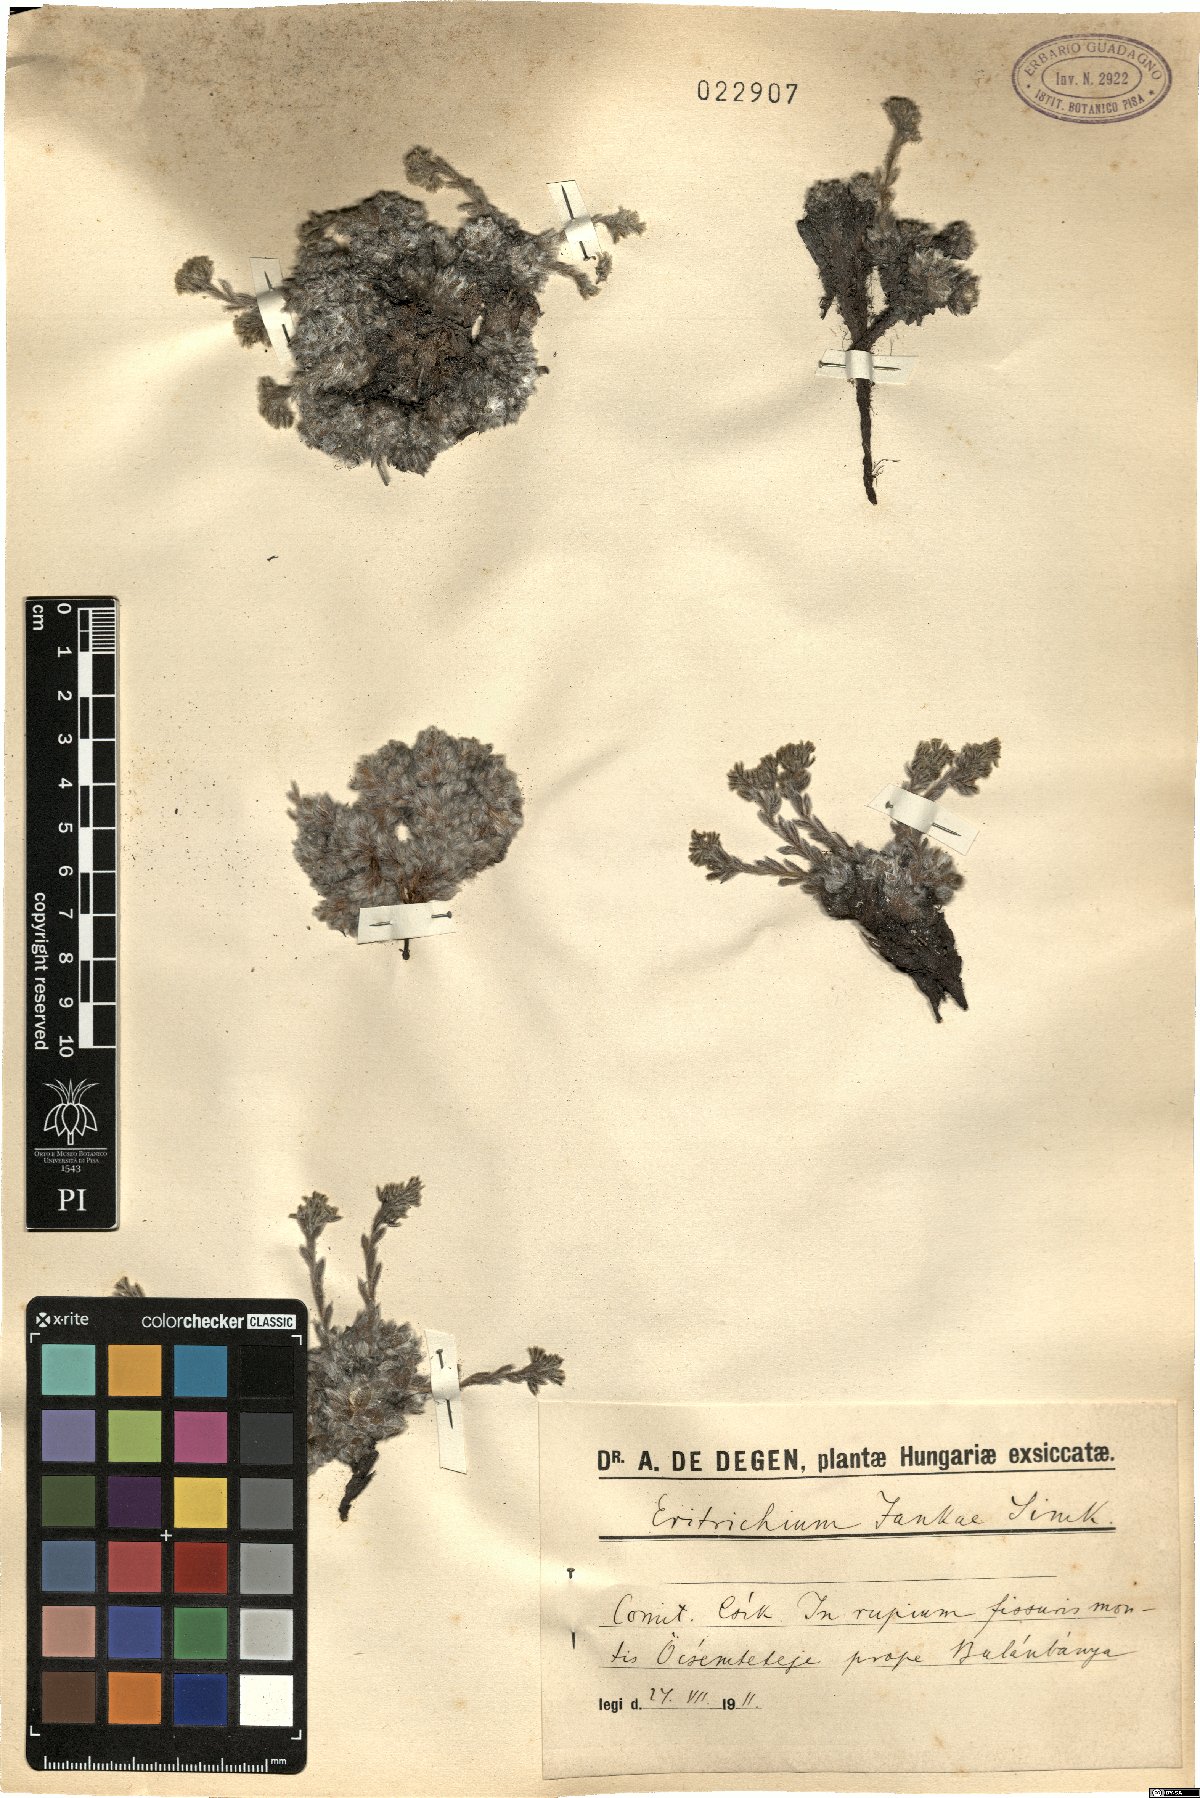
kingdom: Plantae
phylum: Tracheophyta
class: Magnoliopsida
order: Boraginales
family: Boraginaceae
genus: Eritrichium
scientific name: Eritrichium nanum
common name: King-of-the-alps
